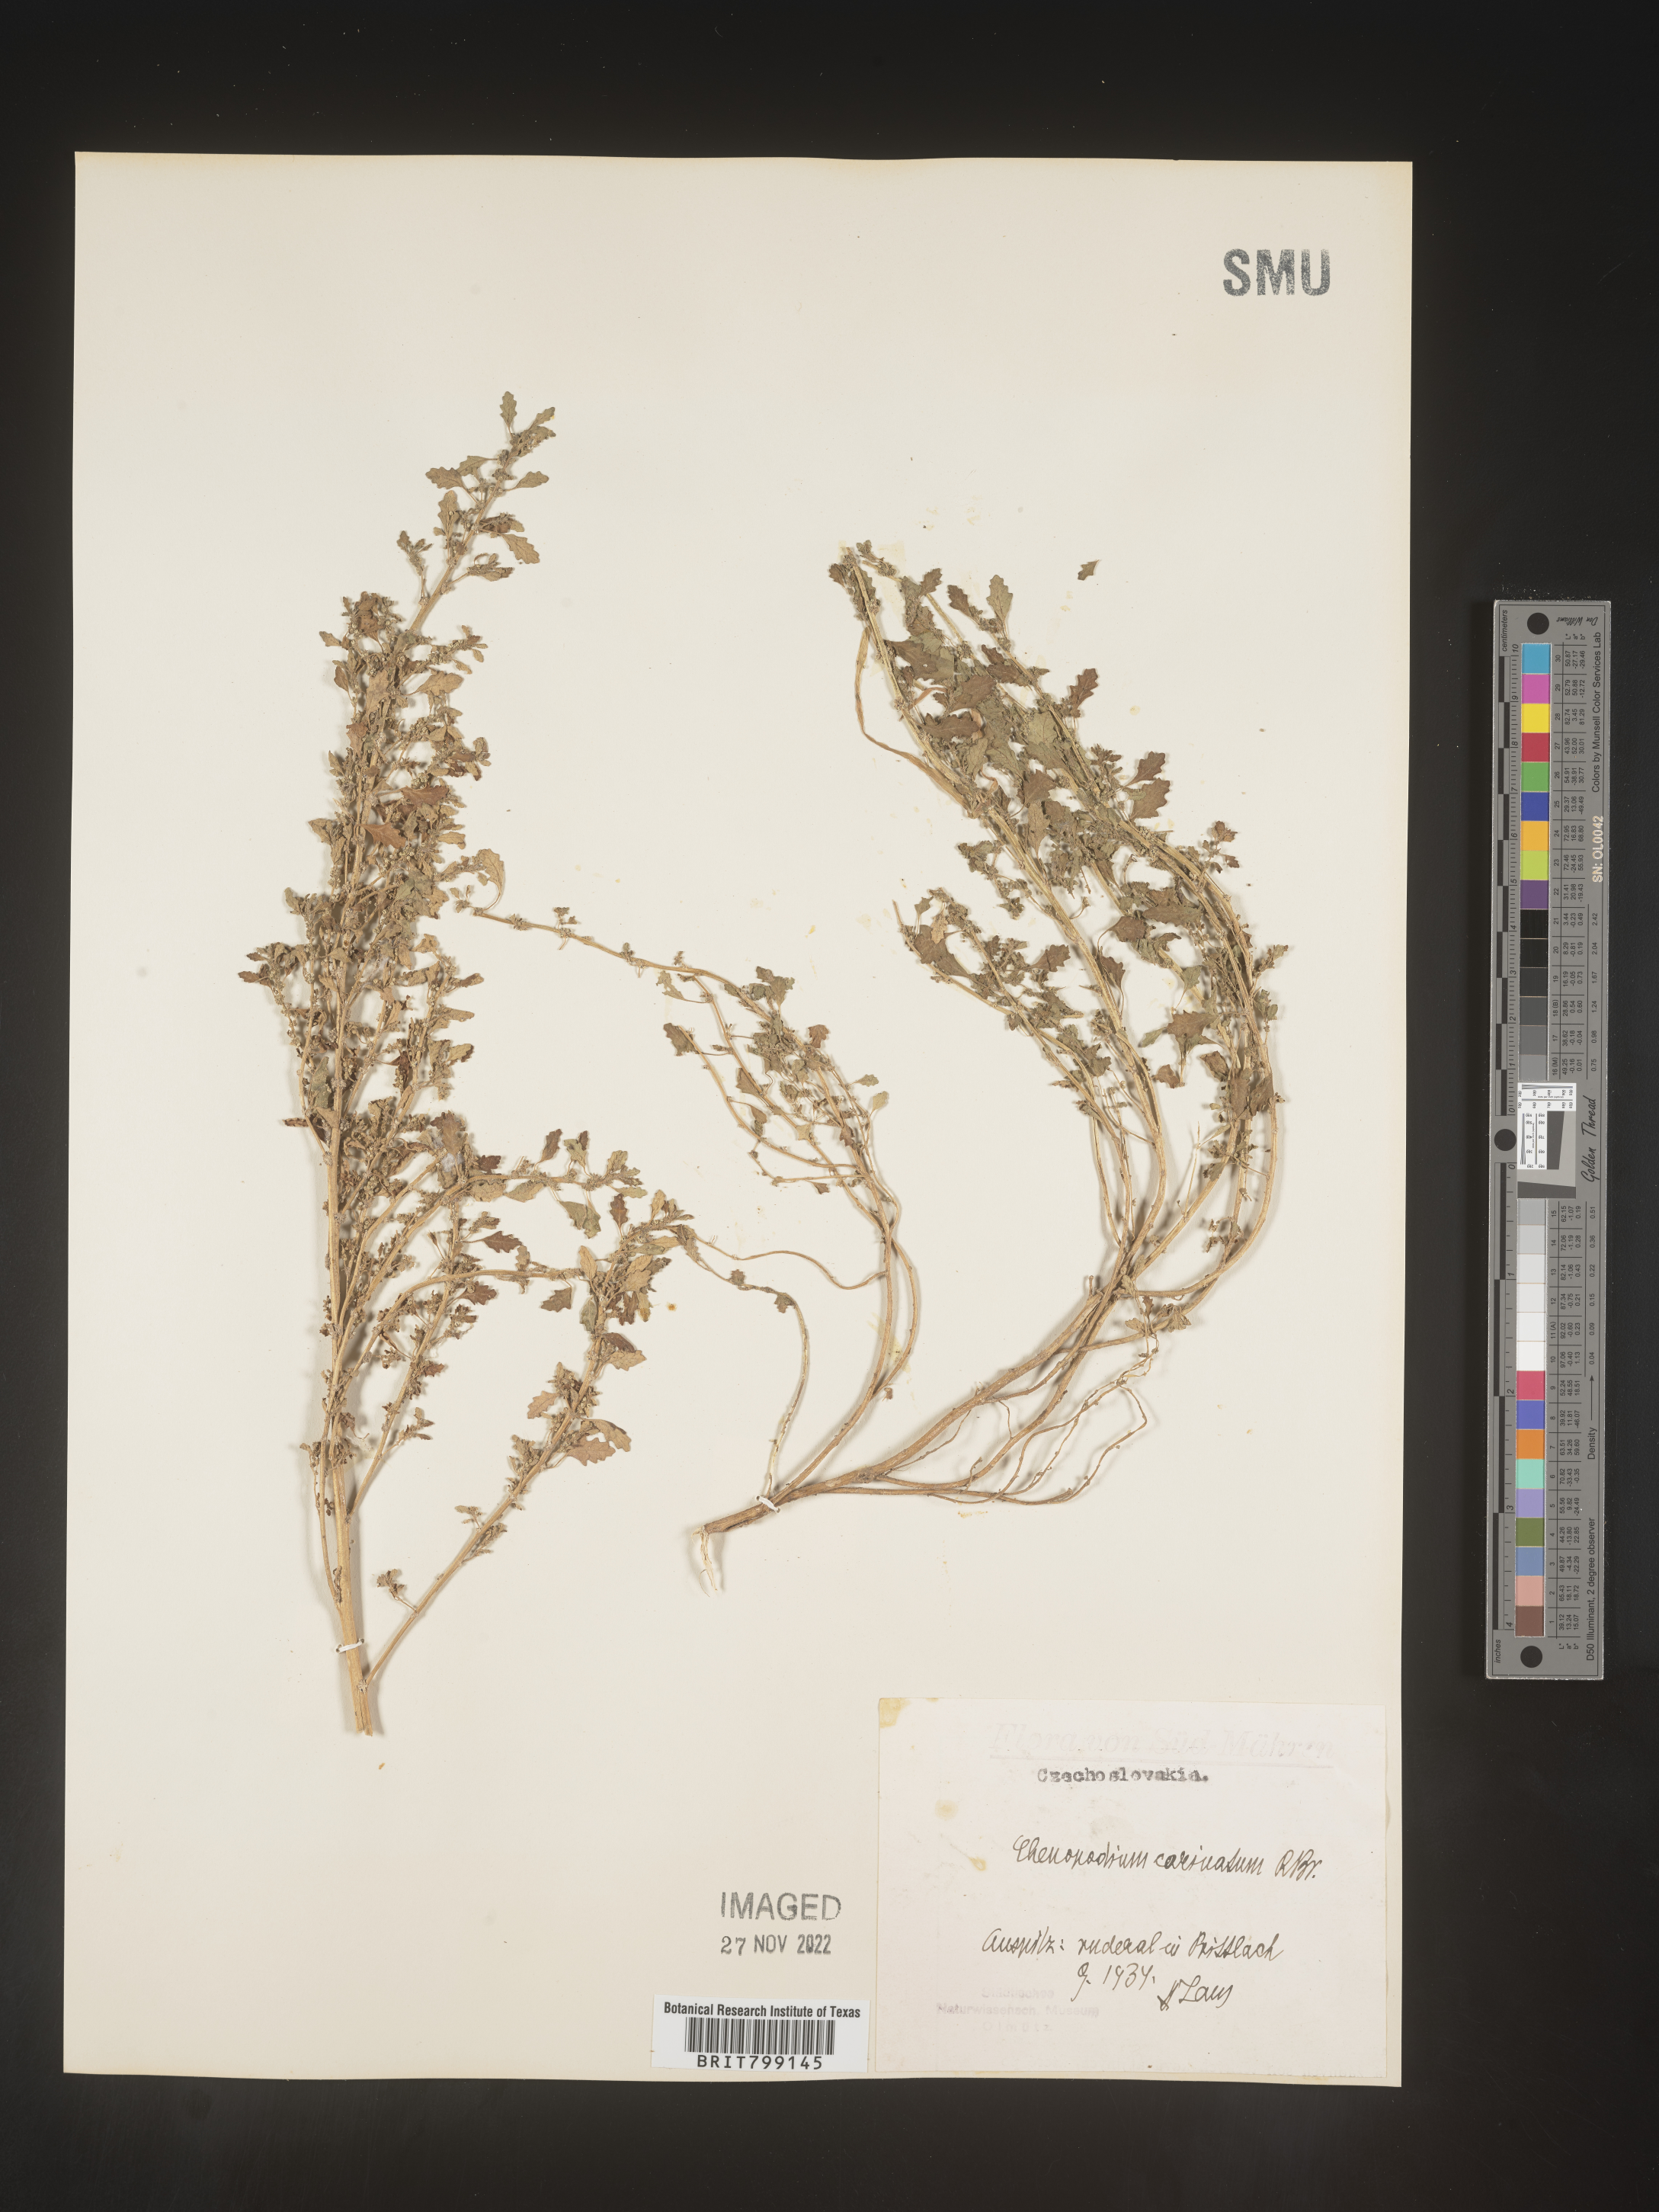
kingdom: Plantae
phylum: Tracheophyta
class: Magnoliopsida
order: Caryophyllales
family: Amaranthaceae
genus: Chenopodium
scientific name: Chenopodium
